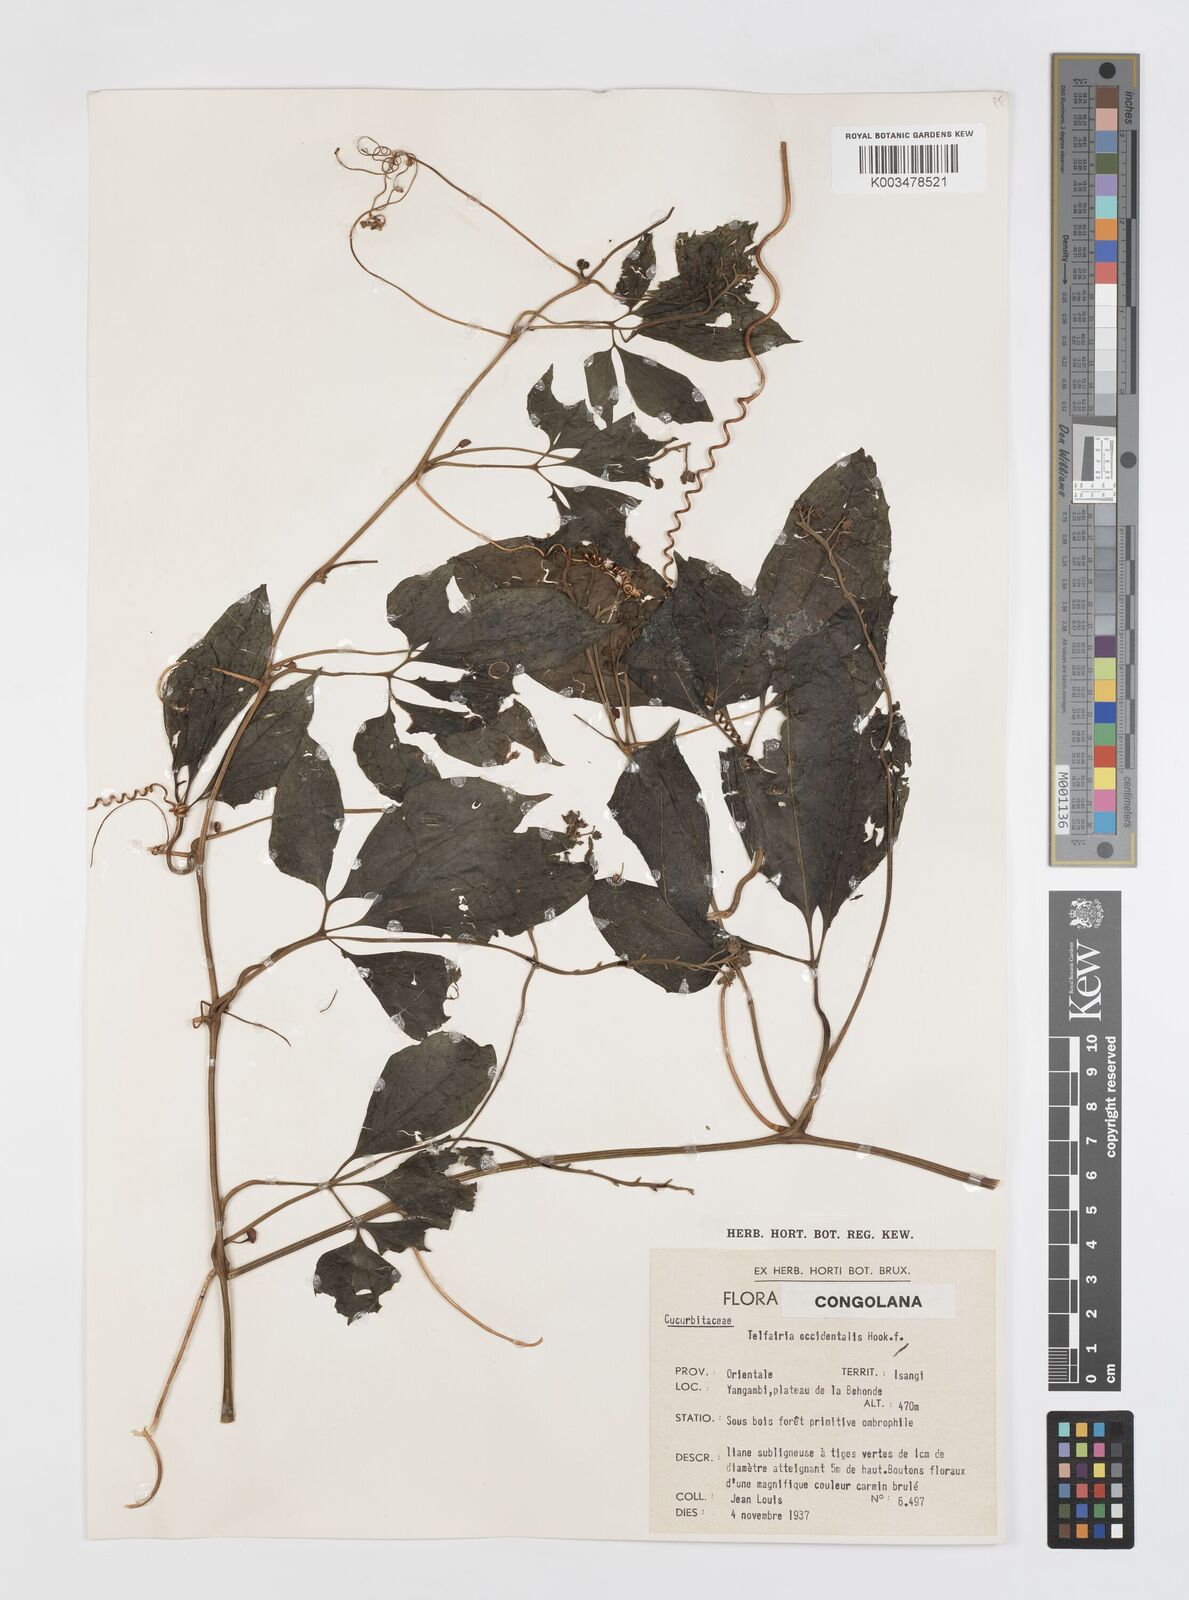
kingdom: Plantae
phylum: Tracheophyta
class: Magnoliopsida
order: Cucurbitales
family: Cucurbitaceae
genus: Telfairia
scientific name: Telfairia occidentalis
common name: Oysternut
